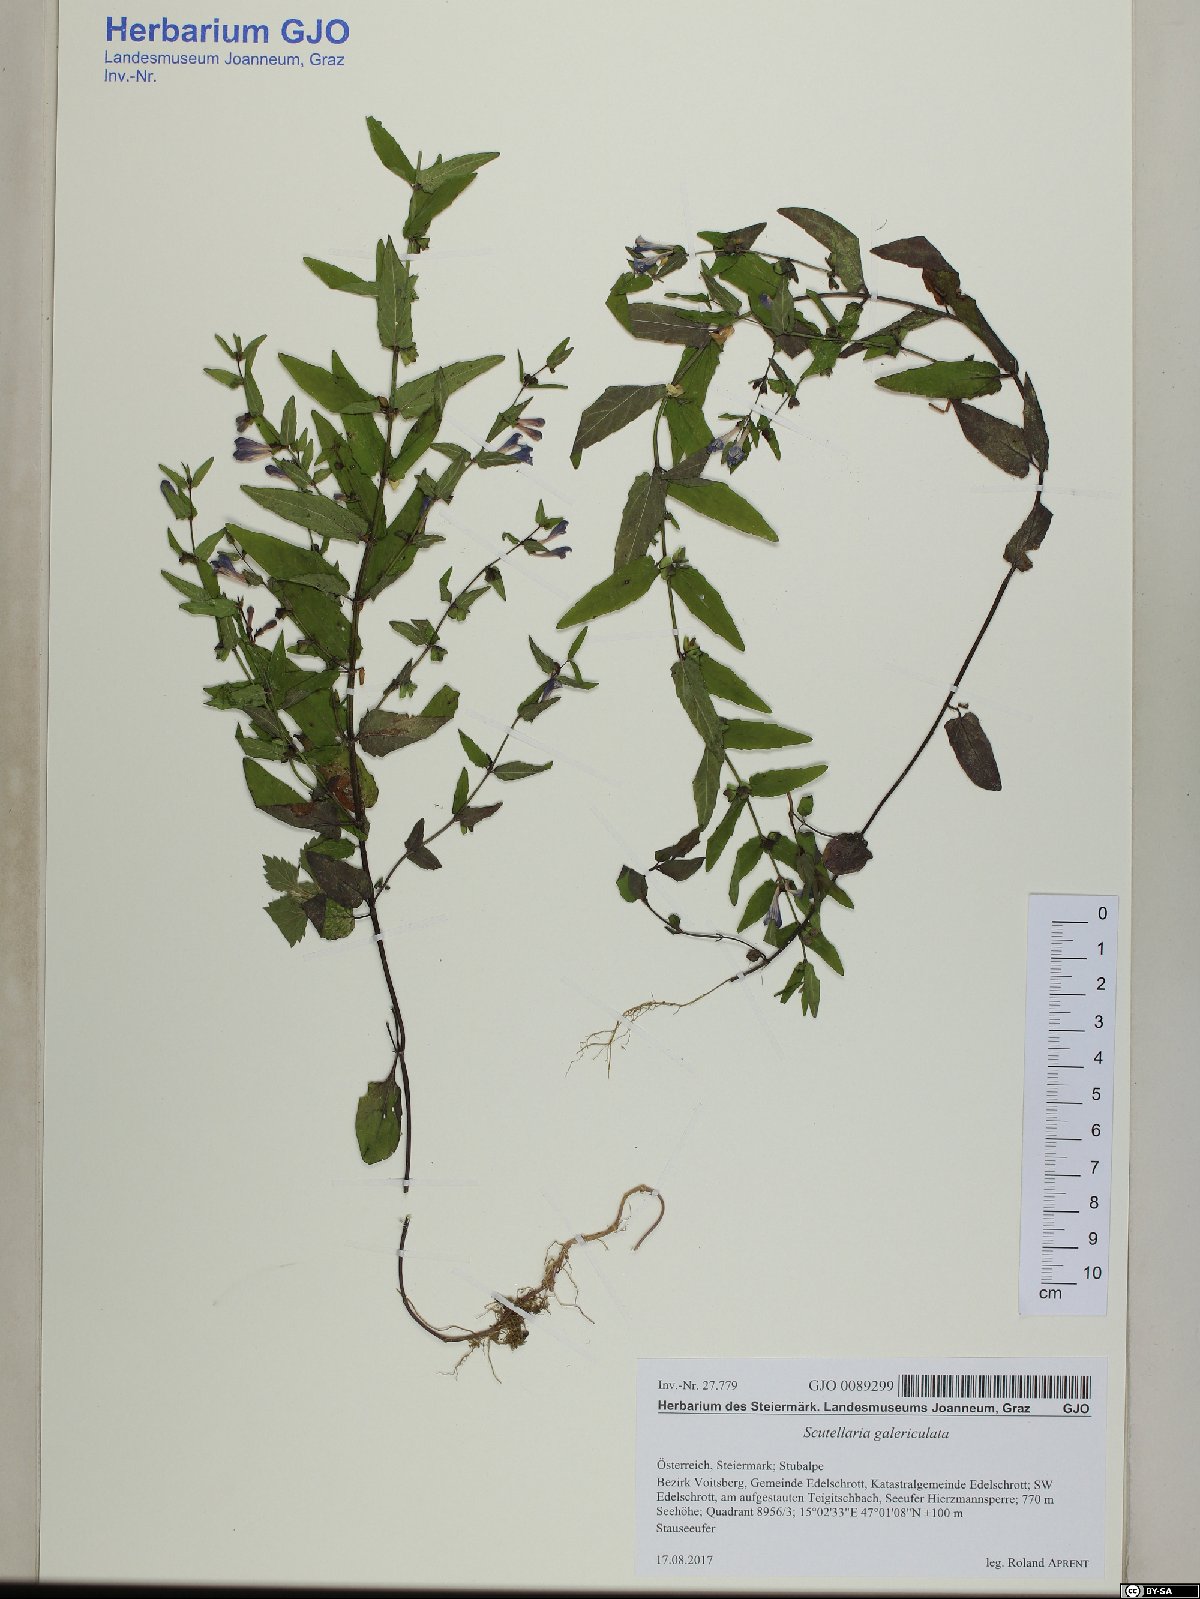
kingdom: Plantae
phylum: Tracheophyta
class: Magnoliopsida
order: Lamiales
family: Lamiaceae
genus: Scutellaria
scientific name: Scutellaria galericulata
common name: Skullcap
